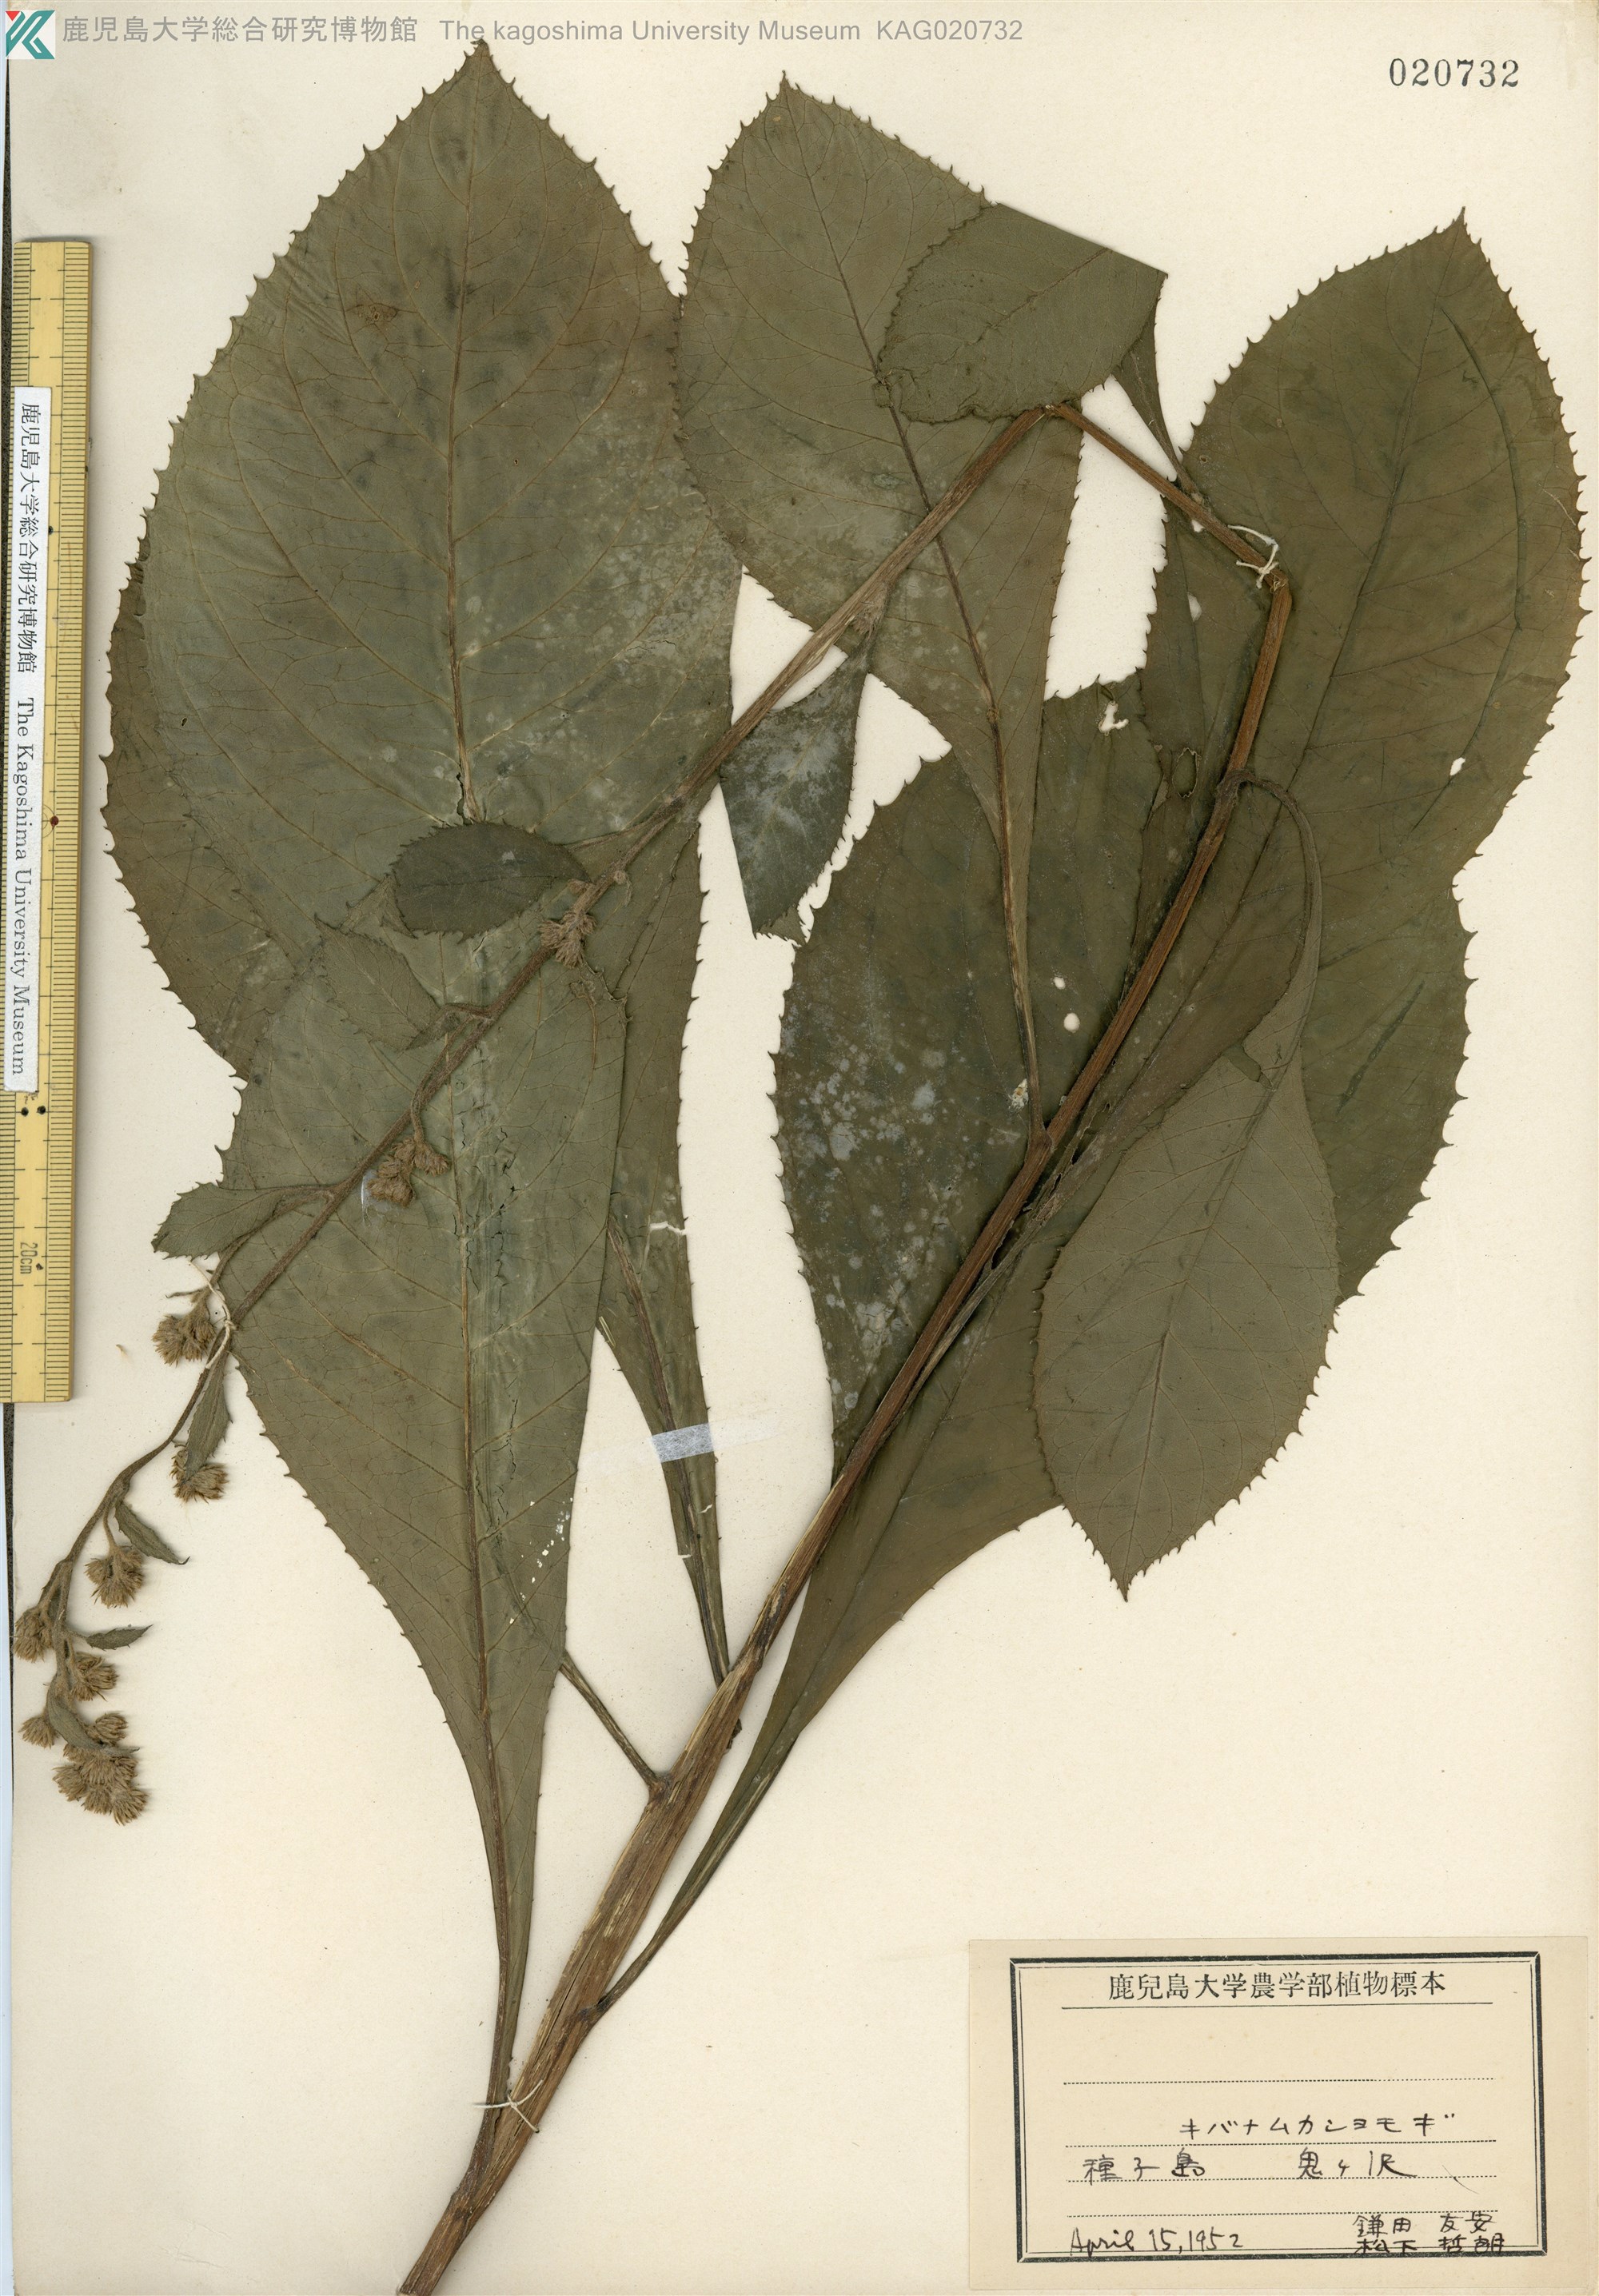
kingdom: Plantae
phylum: Tracheophyta
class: Magnoliopsida
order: Asterales
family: Asteraceae
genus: Blumea
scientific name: Blumea conspicua
